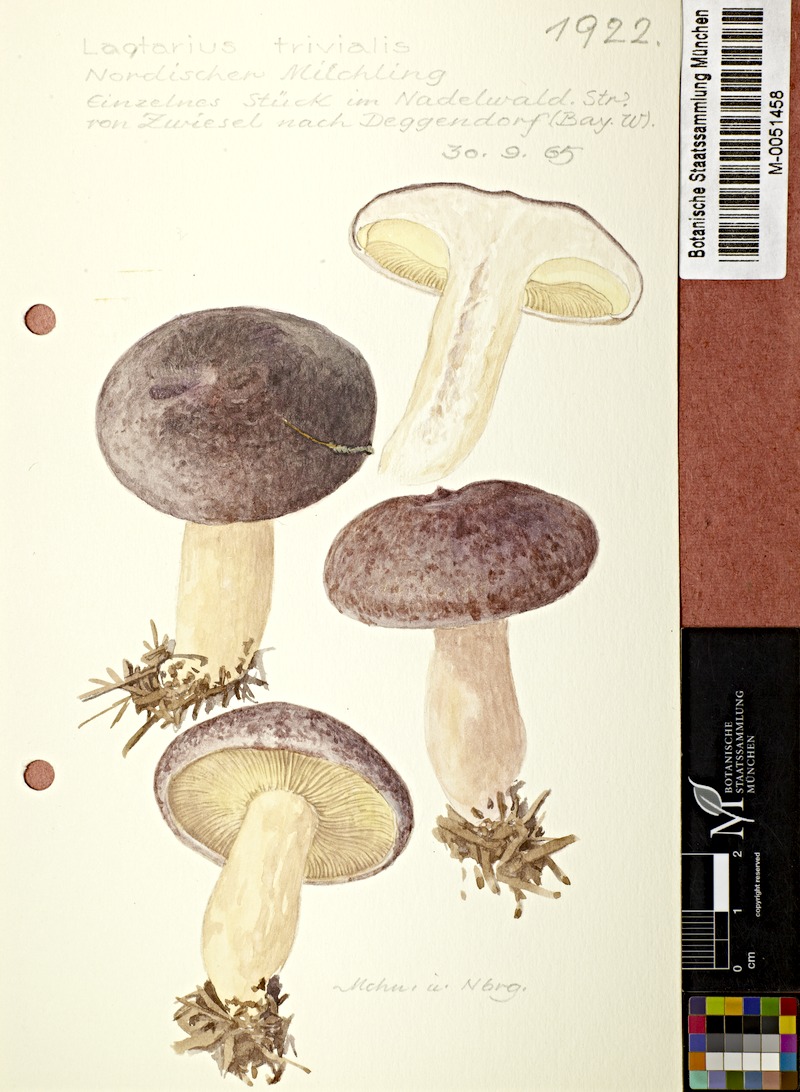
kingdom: Fungi
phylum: Basidiomycota
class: Agaricomycetes
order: Russulales
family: Russulaceae
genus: Lactarius
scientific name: Lactarius trivialis
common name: Tacked milkcap
